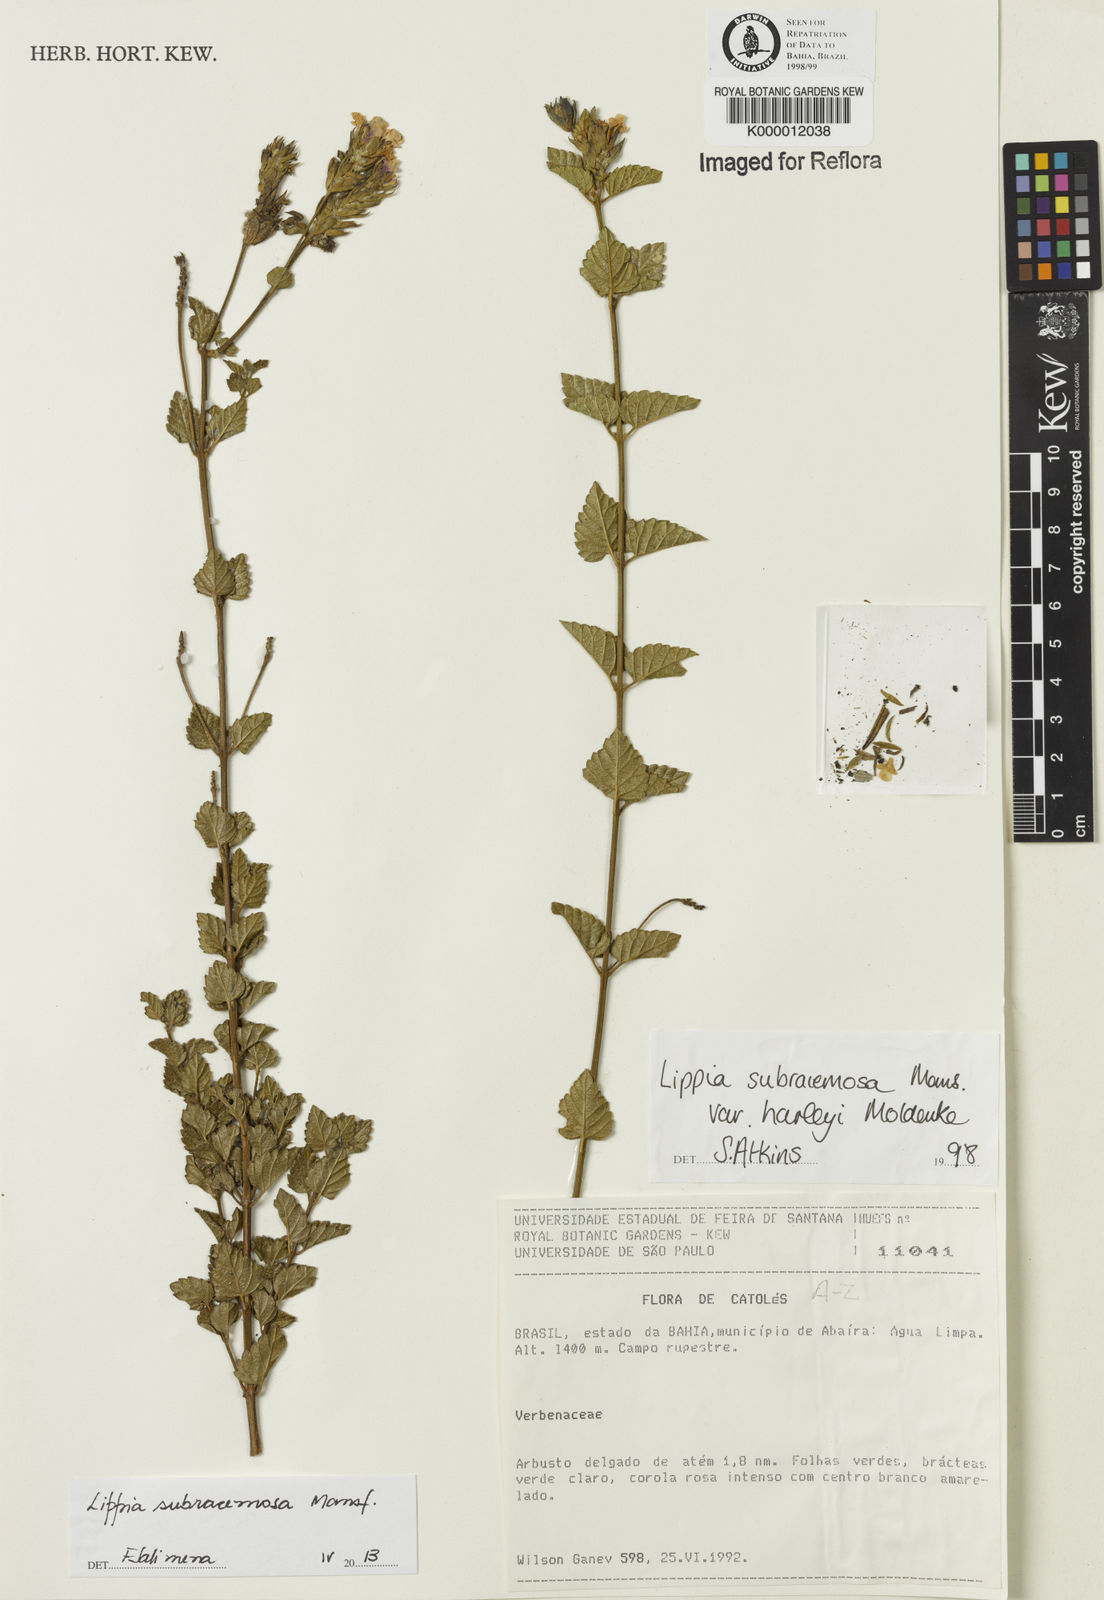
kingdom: Plantae
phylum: Tracheophyta
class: Magnoliopsida
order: Lamiales
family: Verbenaceae
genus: Lippia
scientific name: Lippia deltata
